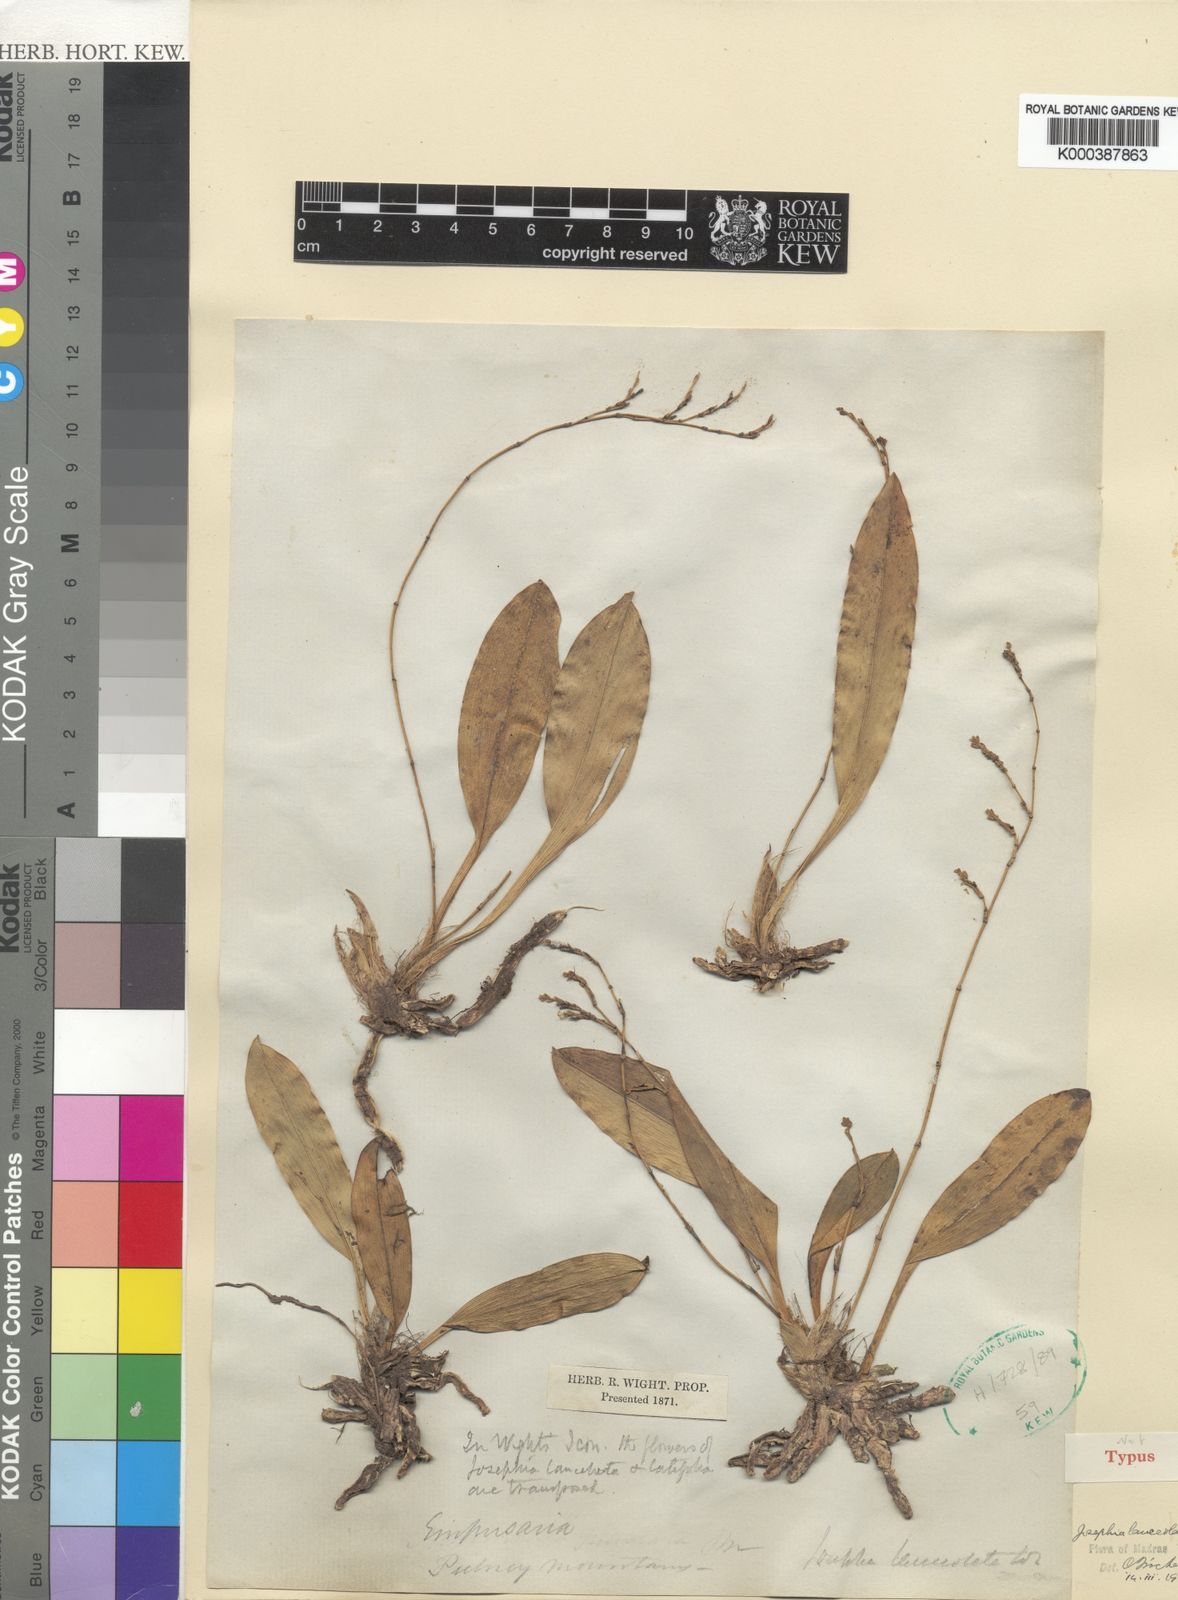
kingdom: Plantae
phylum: Tracheophyta
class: Liliopsida
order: Asparagales
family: Orchidaceae
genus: Sirhookera
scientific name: Sirhookera lanceolata
